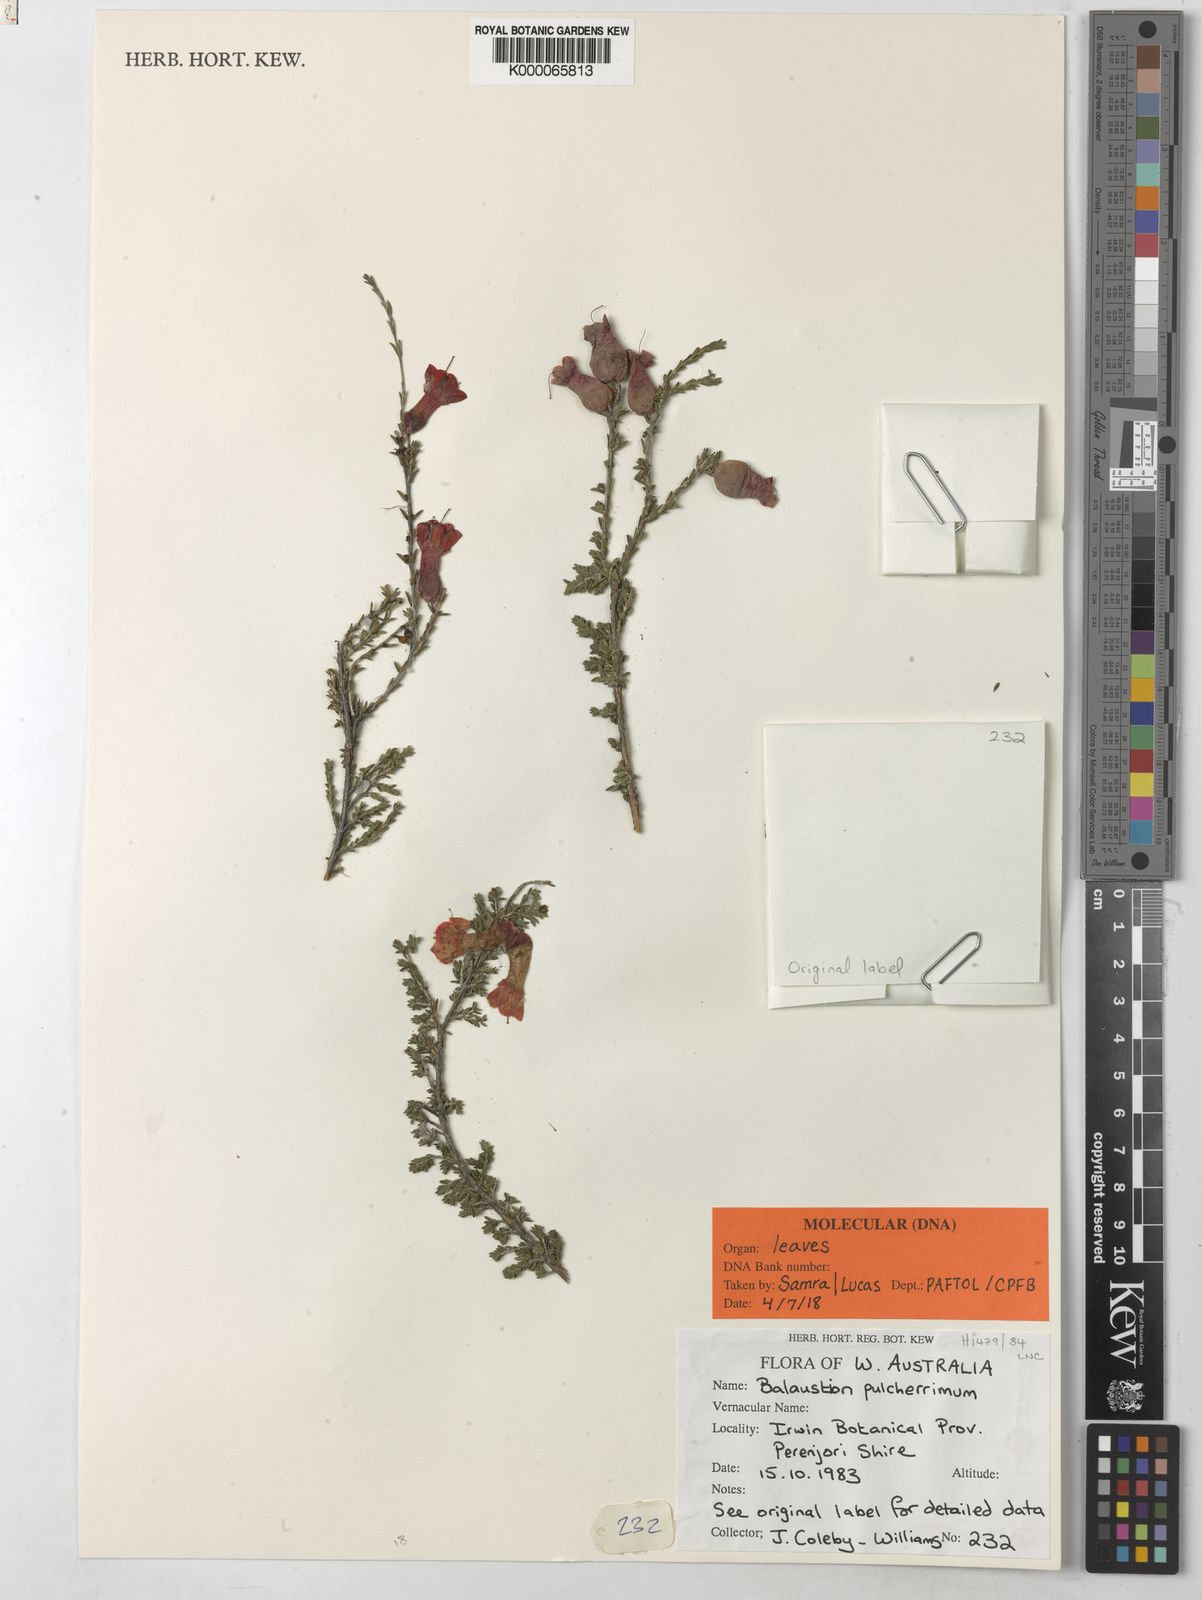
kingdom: Plantae
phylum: Tracheophyta
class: Magnoliopsida
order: Myrtales
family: Myrtaceae
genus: Balaustion
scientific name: Balaustion pulcherrimum
